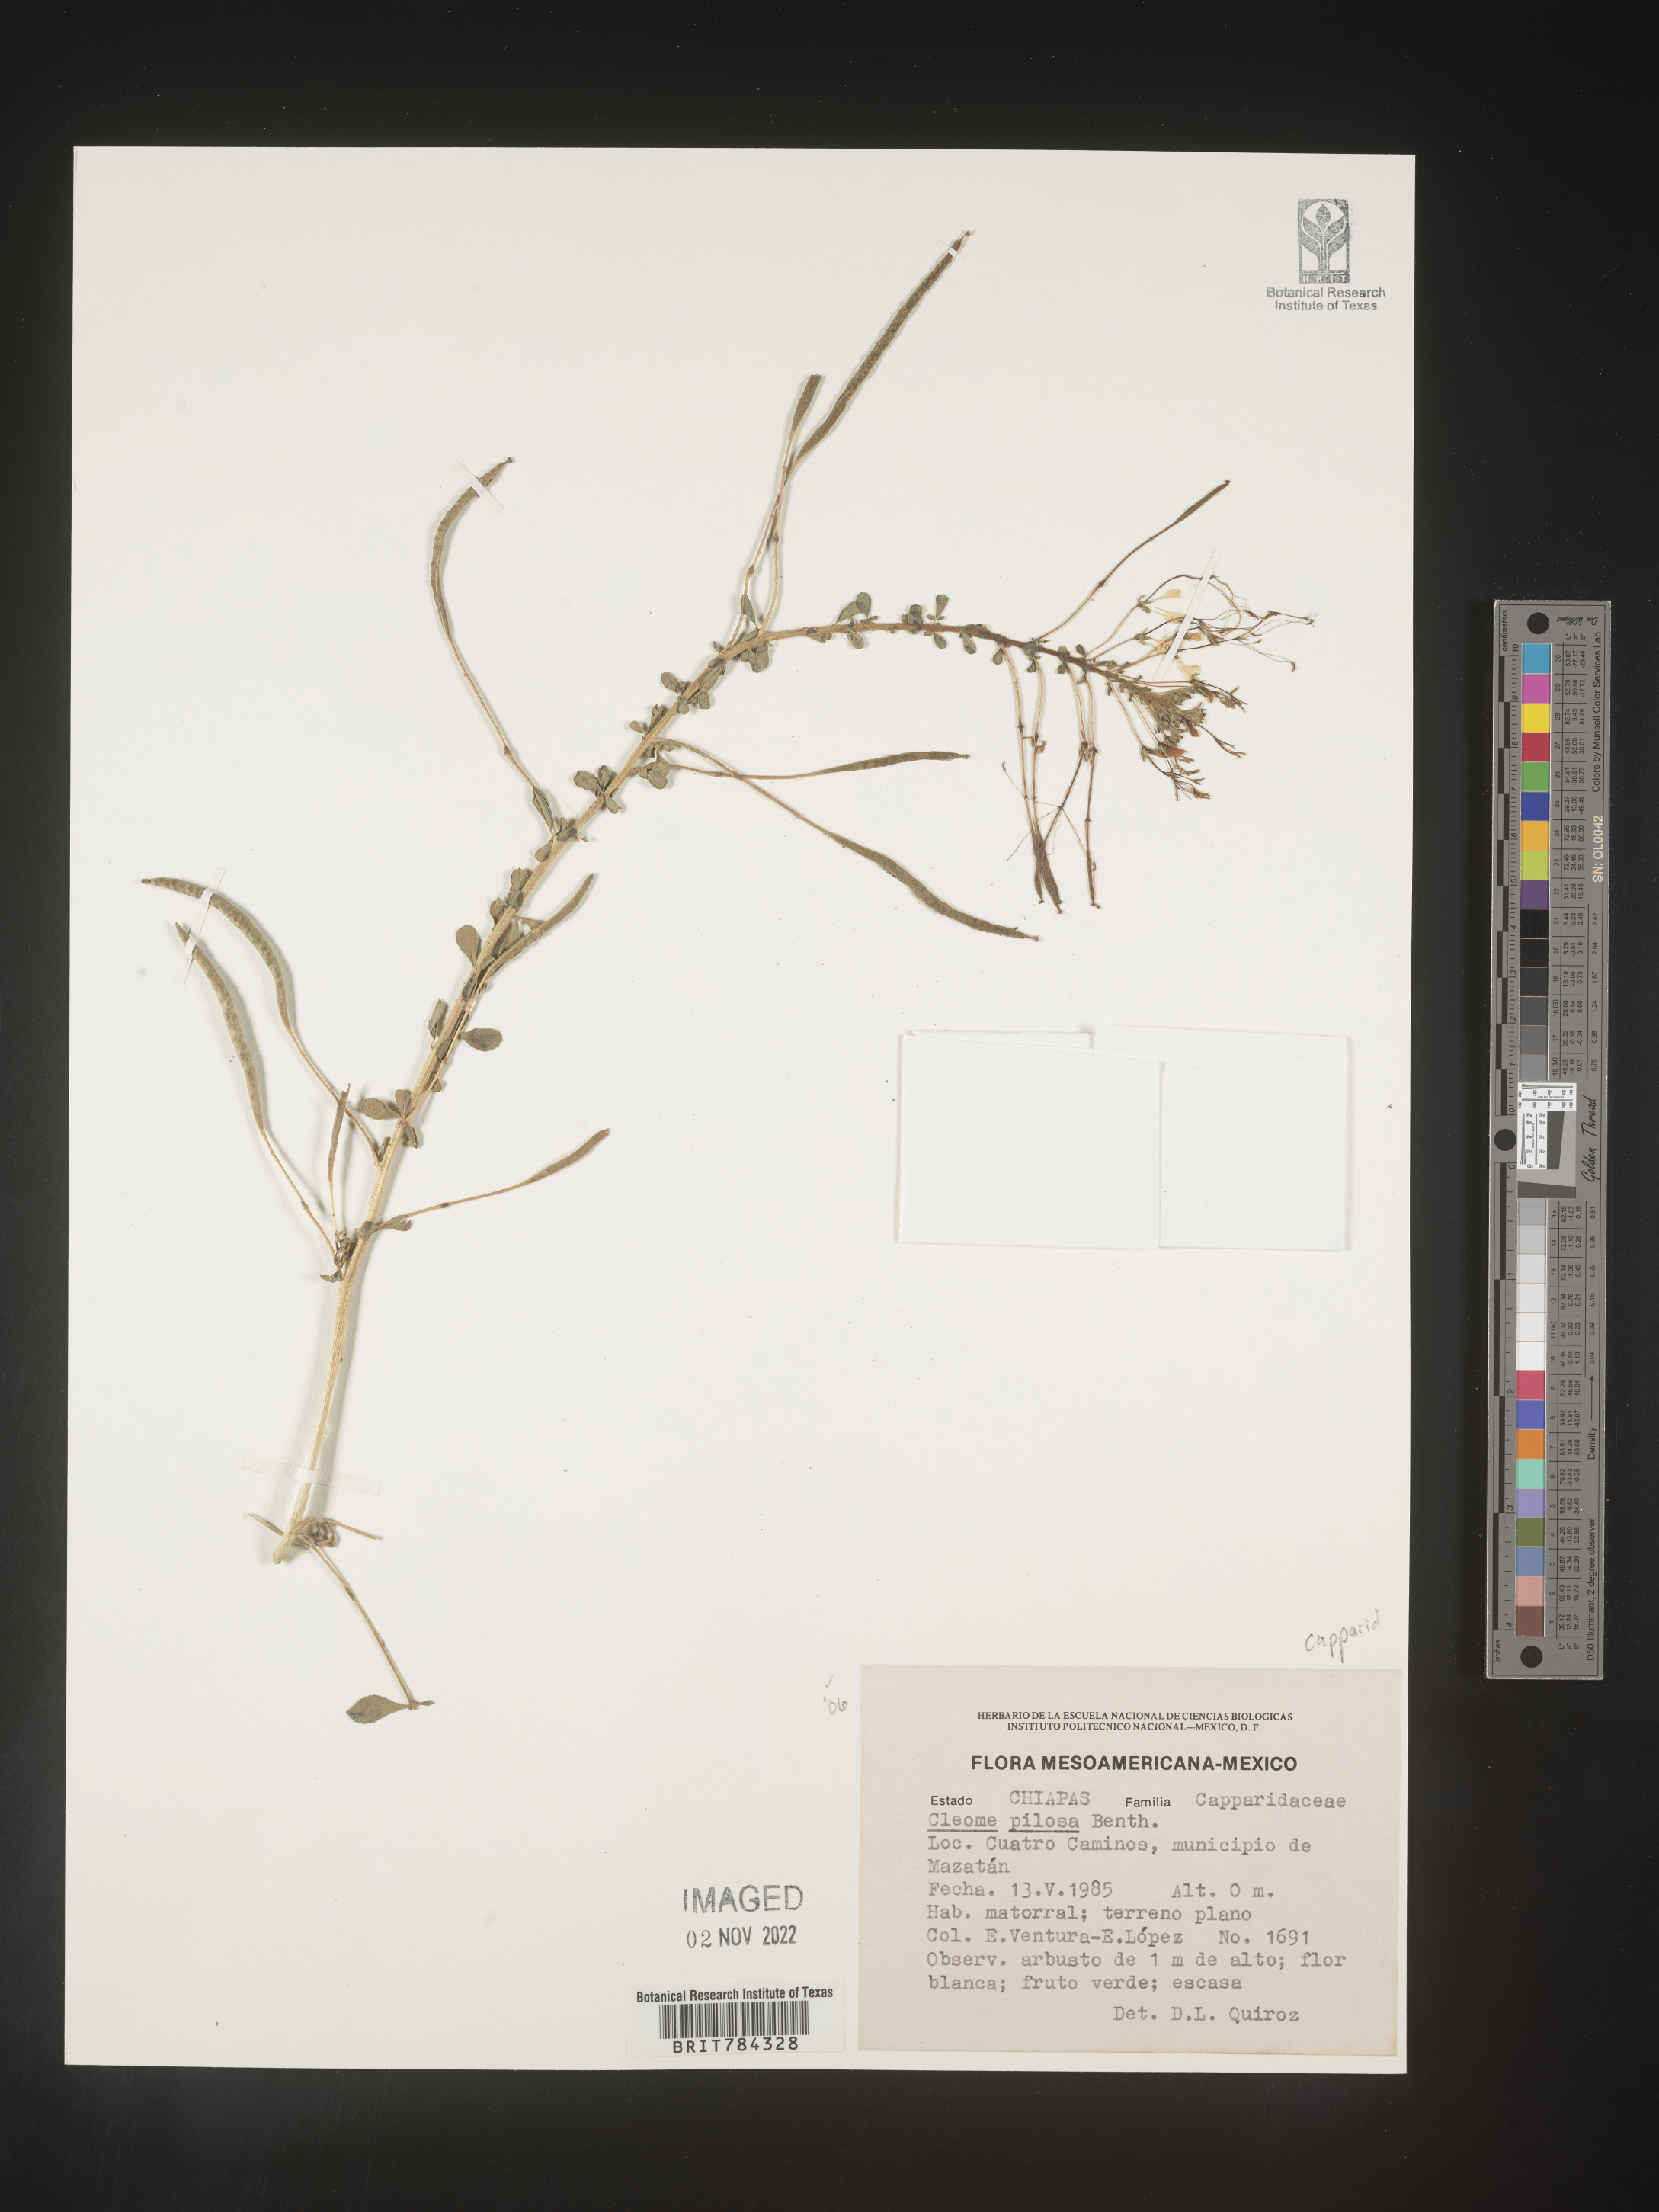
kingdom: Plantae
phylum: Tracheophyta
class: Magnoliopsida
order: Brassicales
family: Cleomaceae
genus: Cleome
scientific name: Cleome
